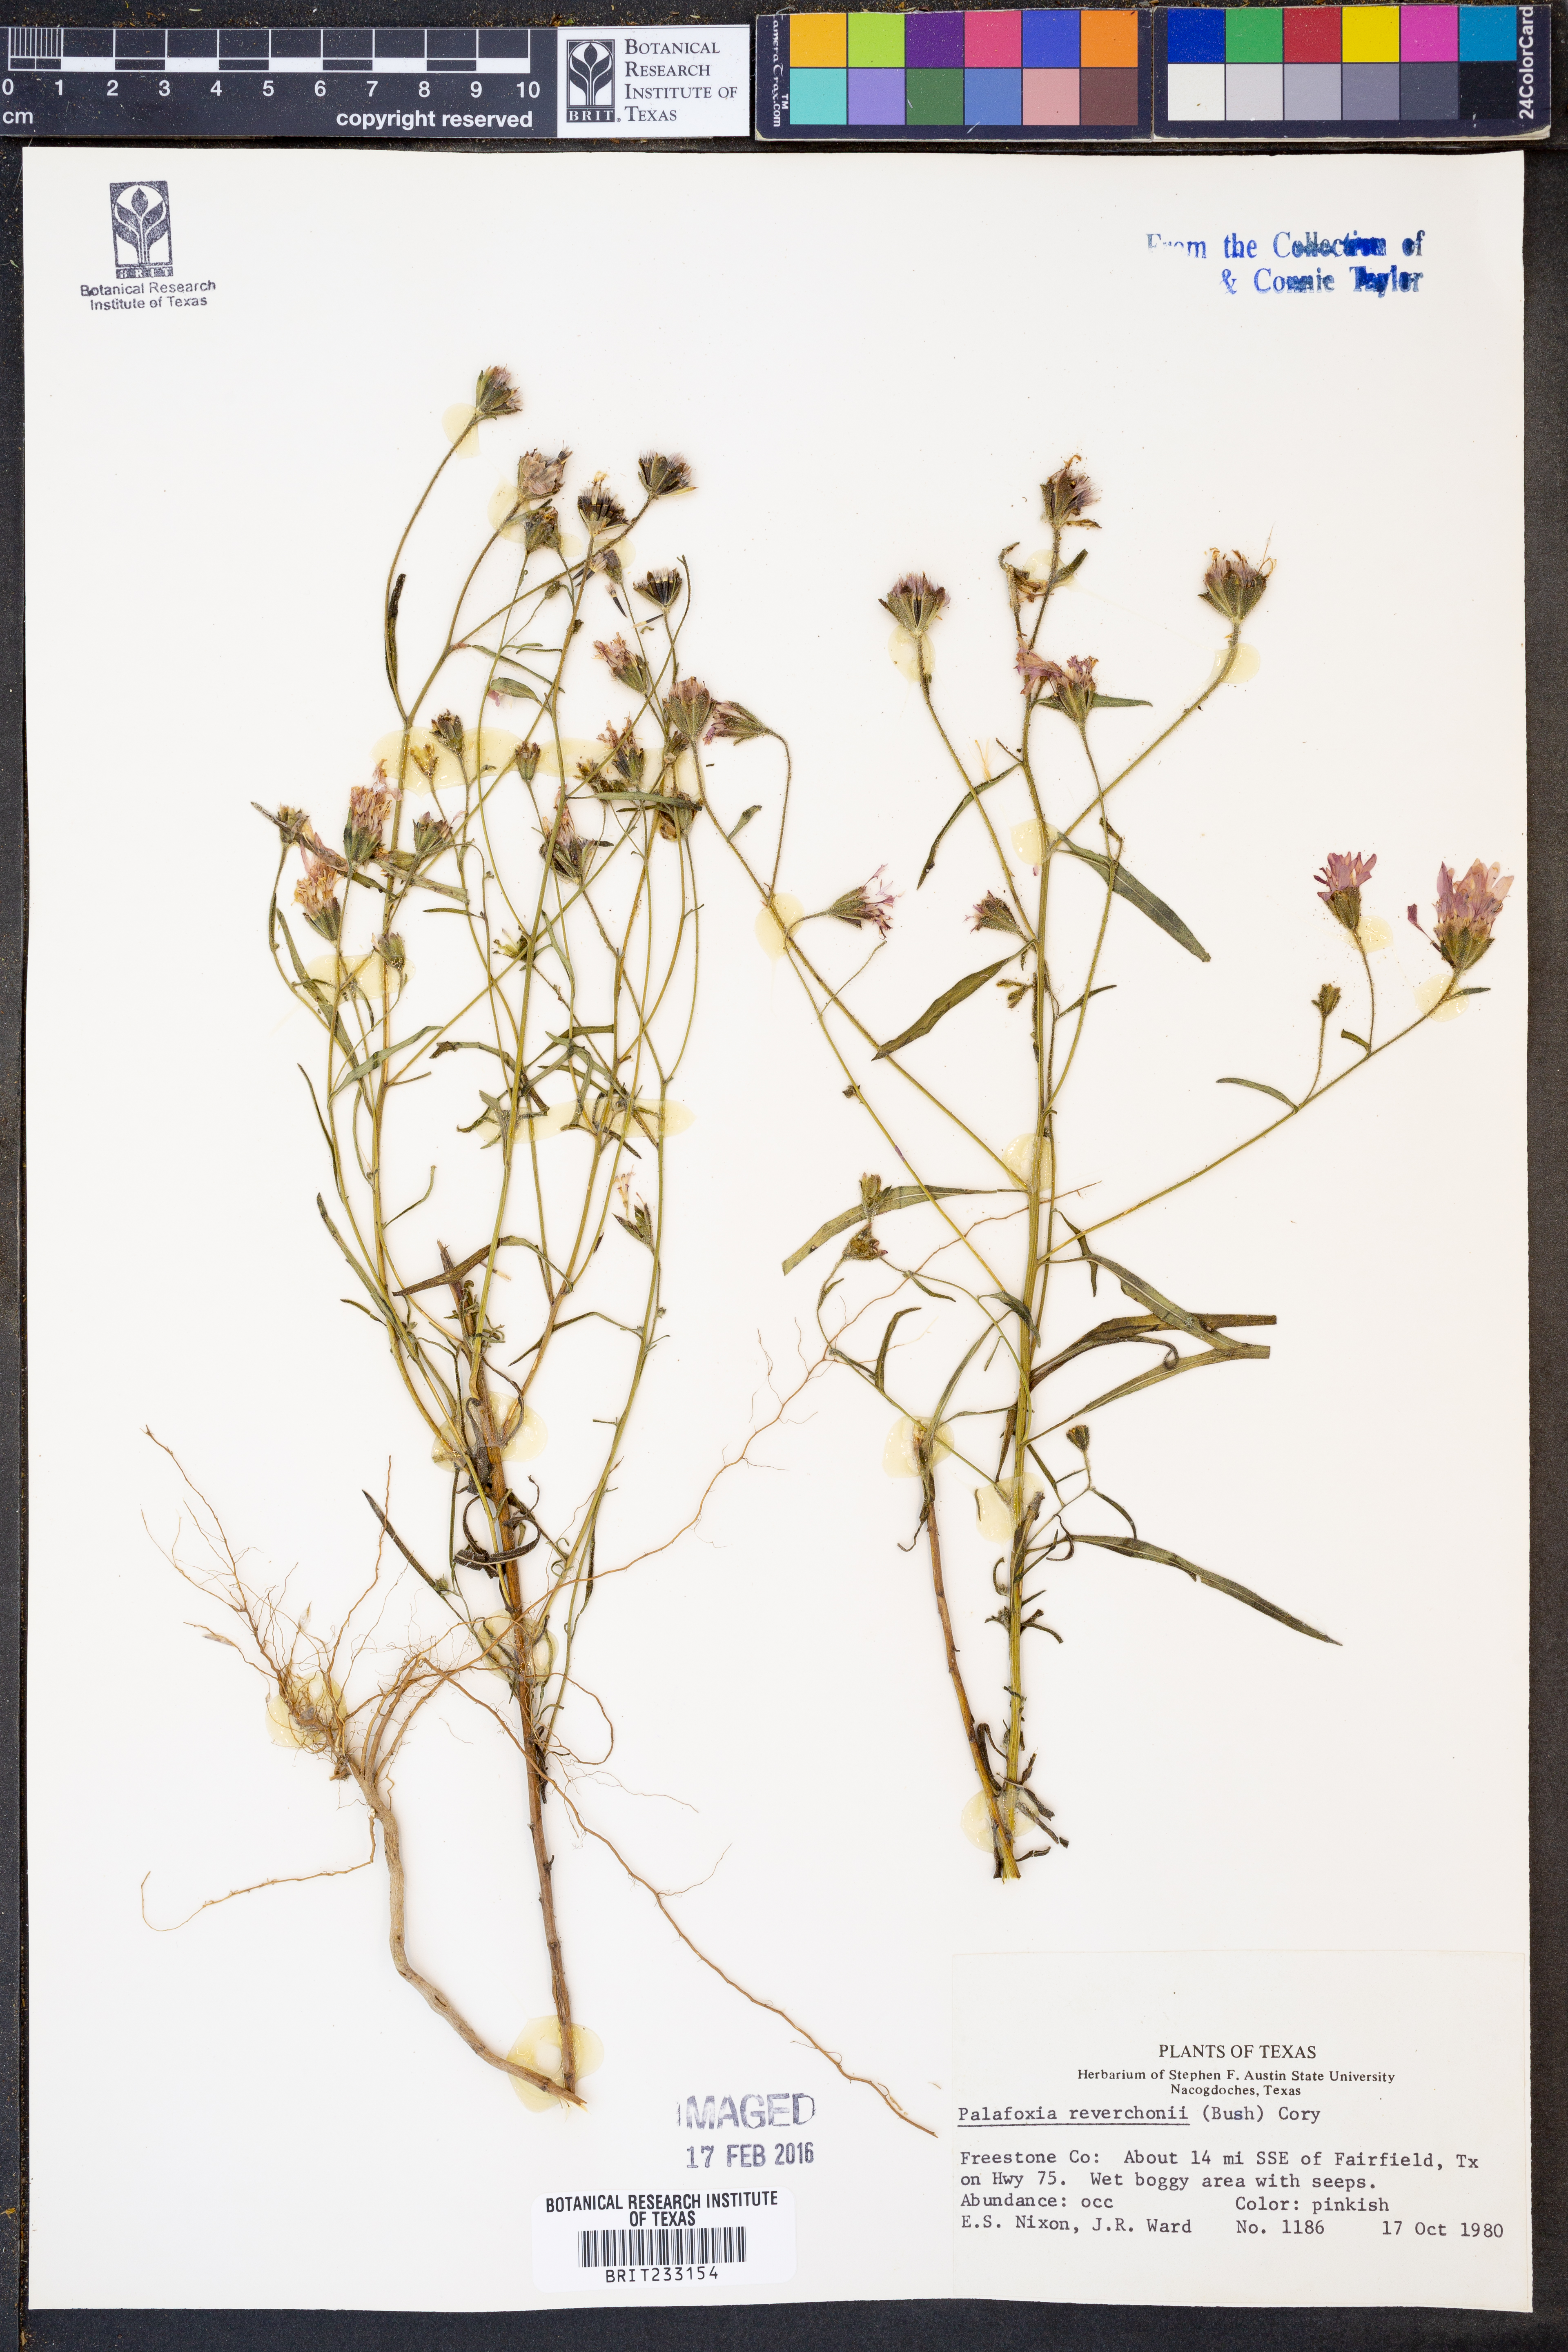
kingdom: Plantae
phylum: Tracheophyta
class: Magnoliopsida
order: Asterales
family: Asteraceae
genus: Palafoxia
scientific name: Palafoxia reverchonii
